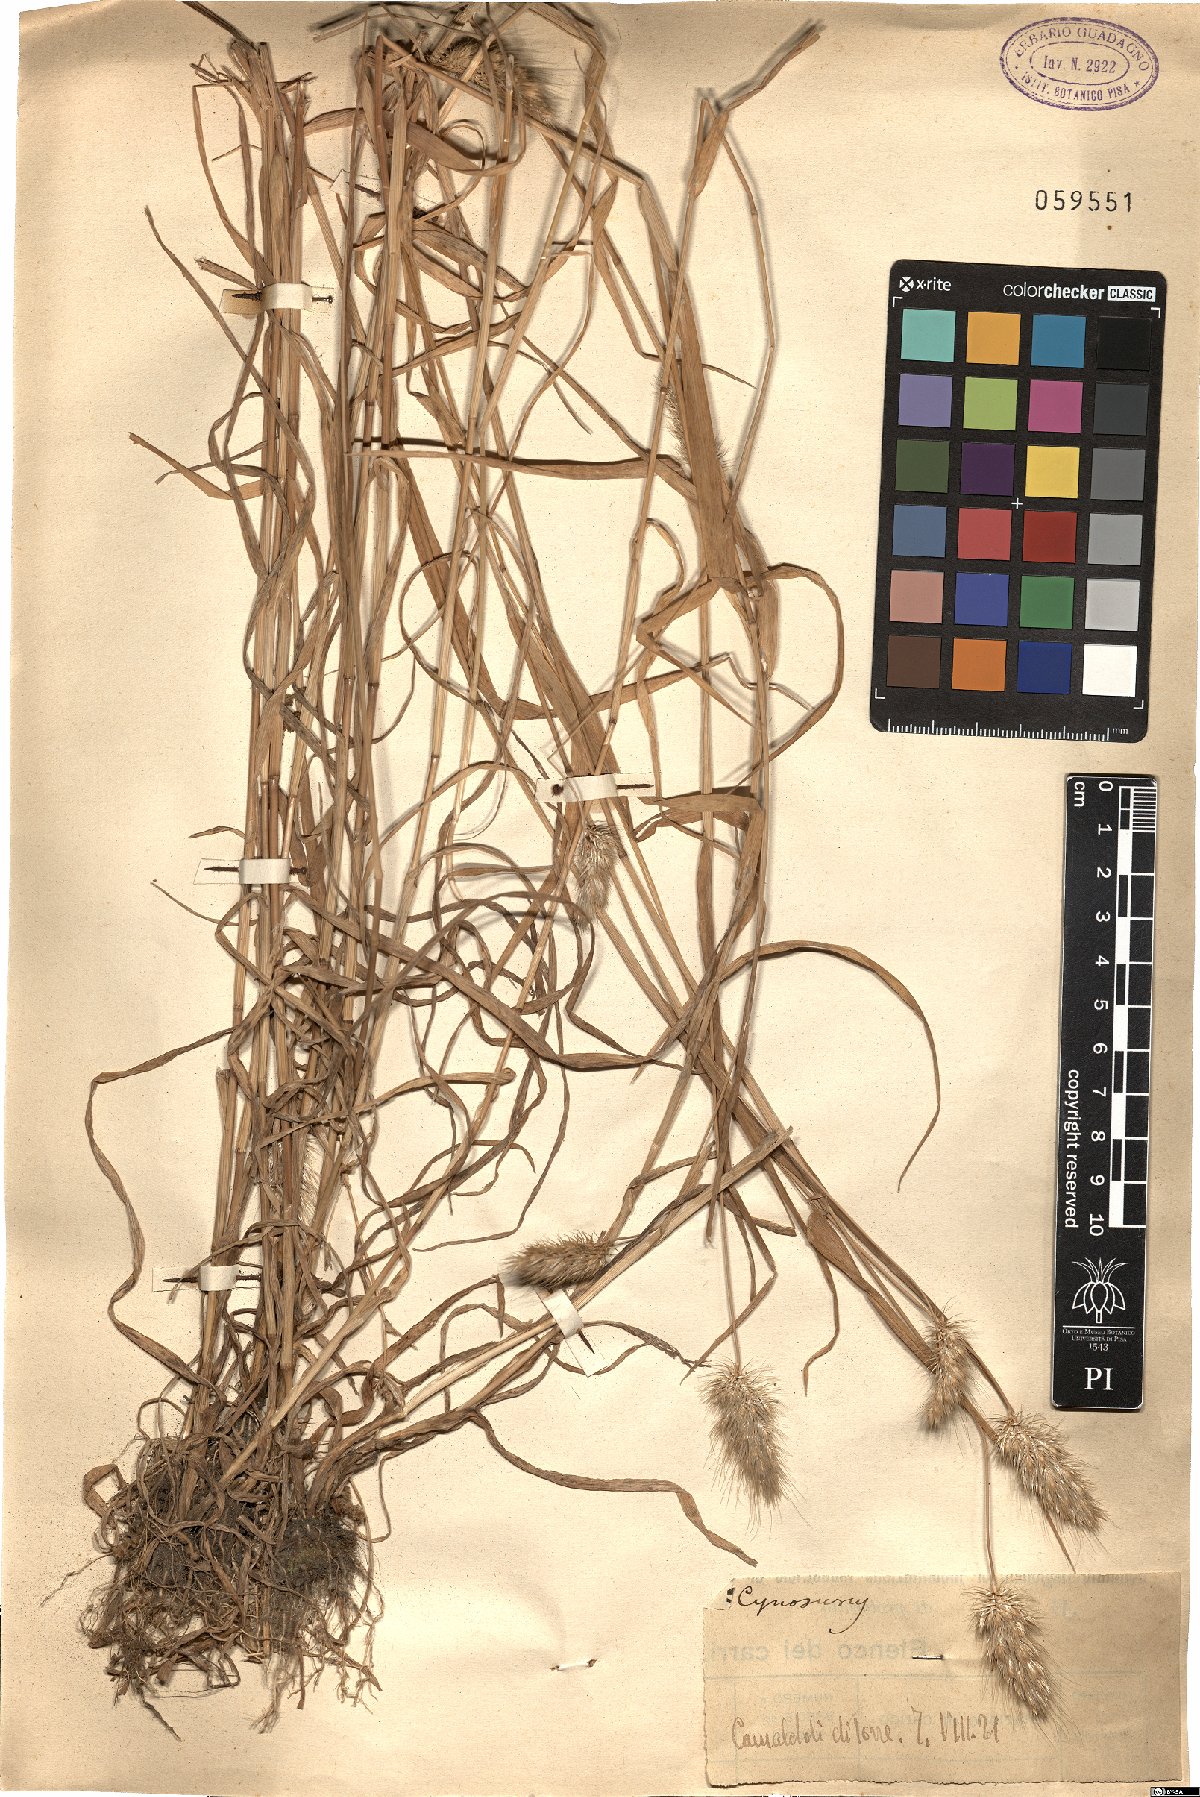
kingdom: Plantae
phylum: Tracheophyta
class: Liliopsida
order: Poales
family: Poaceae
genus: Cynosurus
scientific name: Cynosurus
